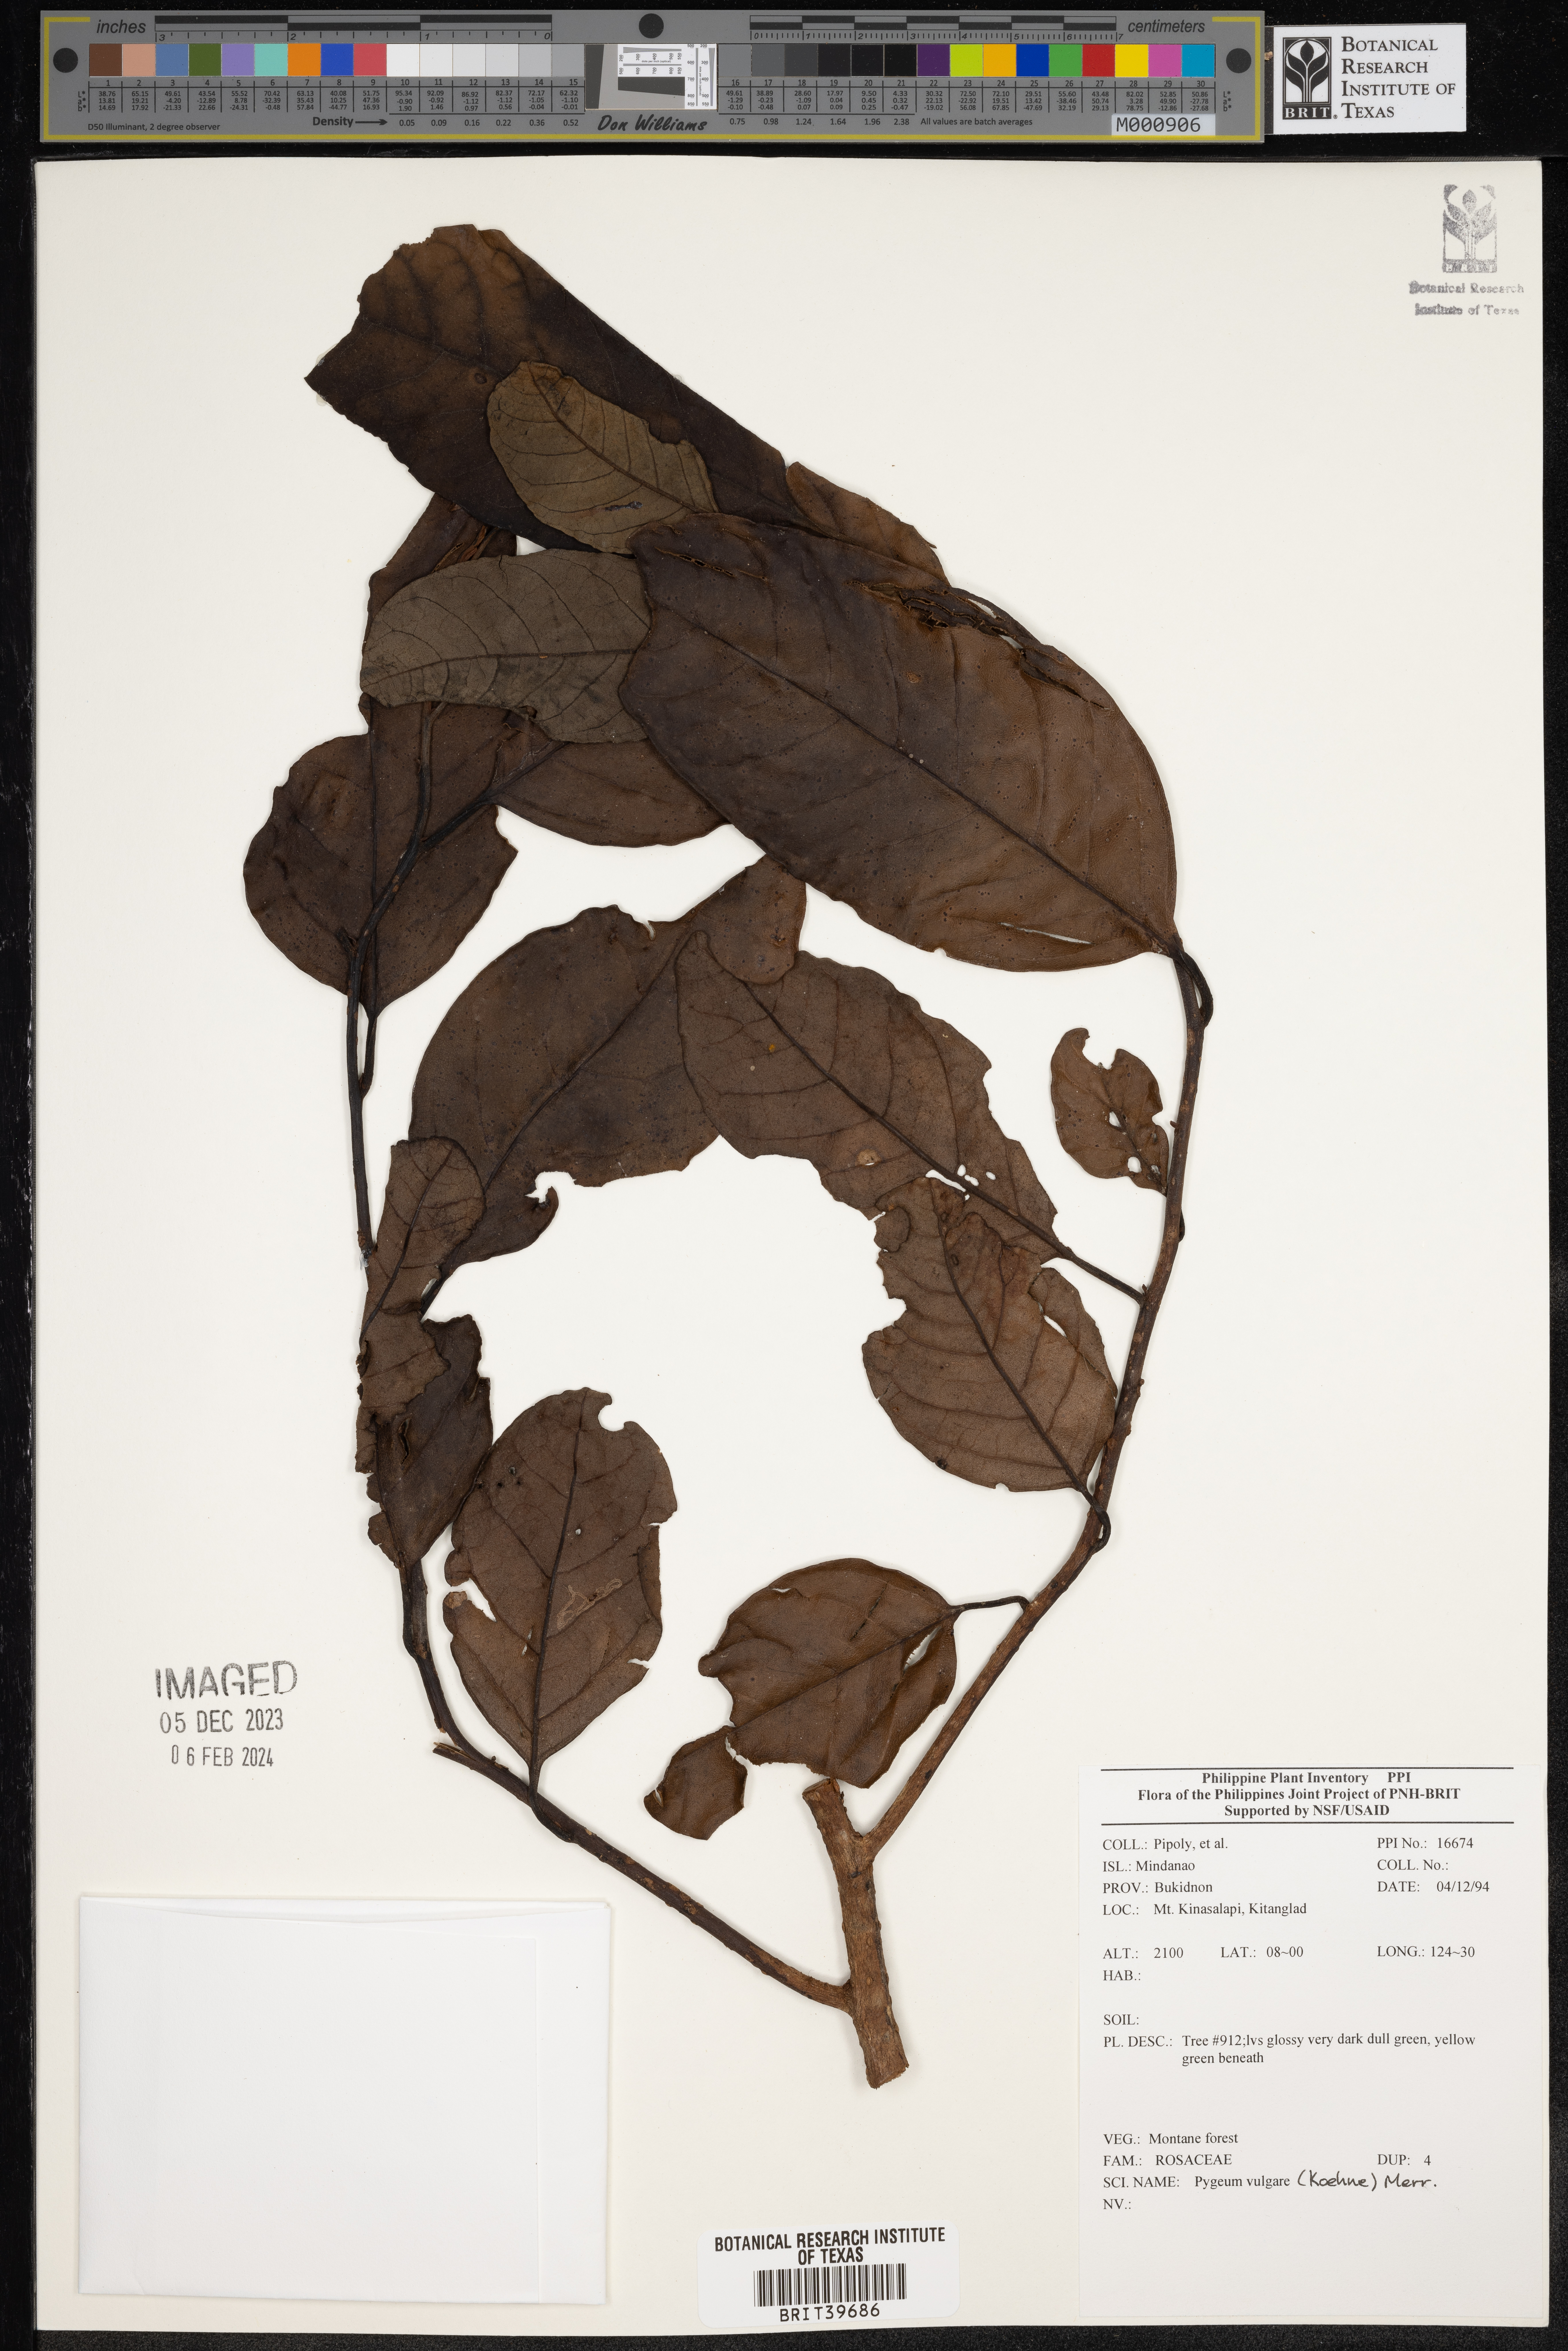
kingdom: Plantae
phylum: Tracheophyta
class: Magnoliopsida
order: Rosales
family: Rosaceae
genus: Prunus
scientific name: Prunus grisea
